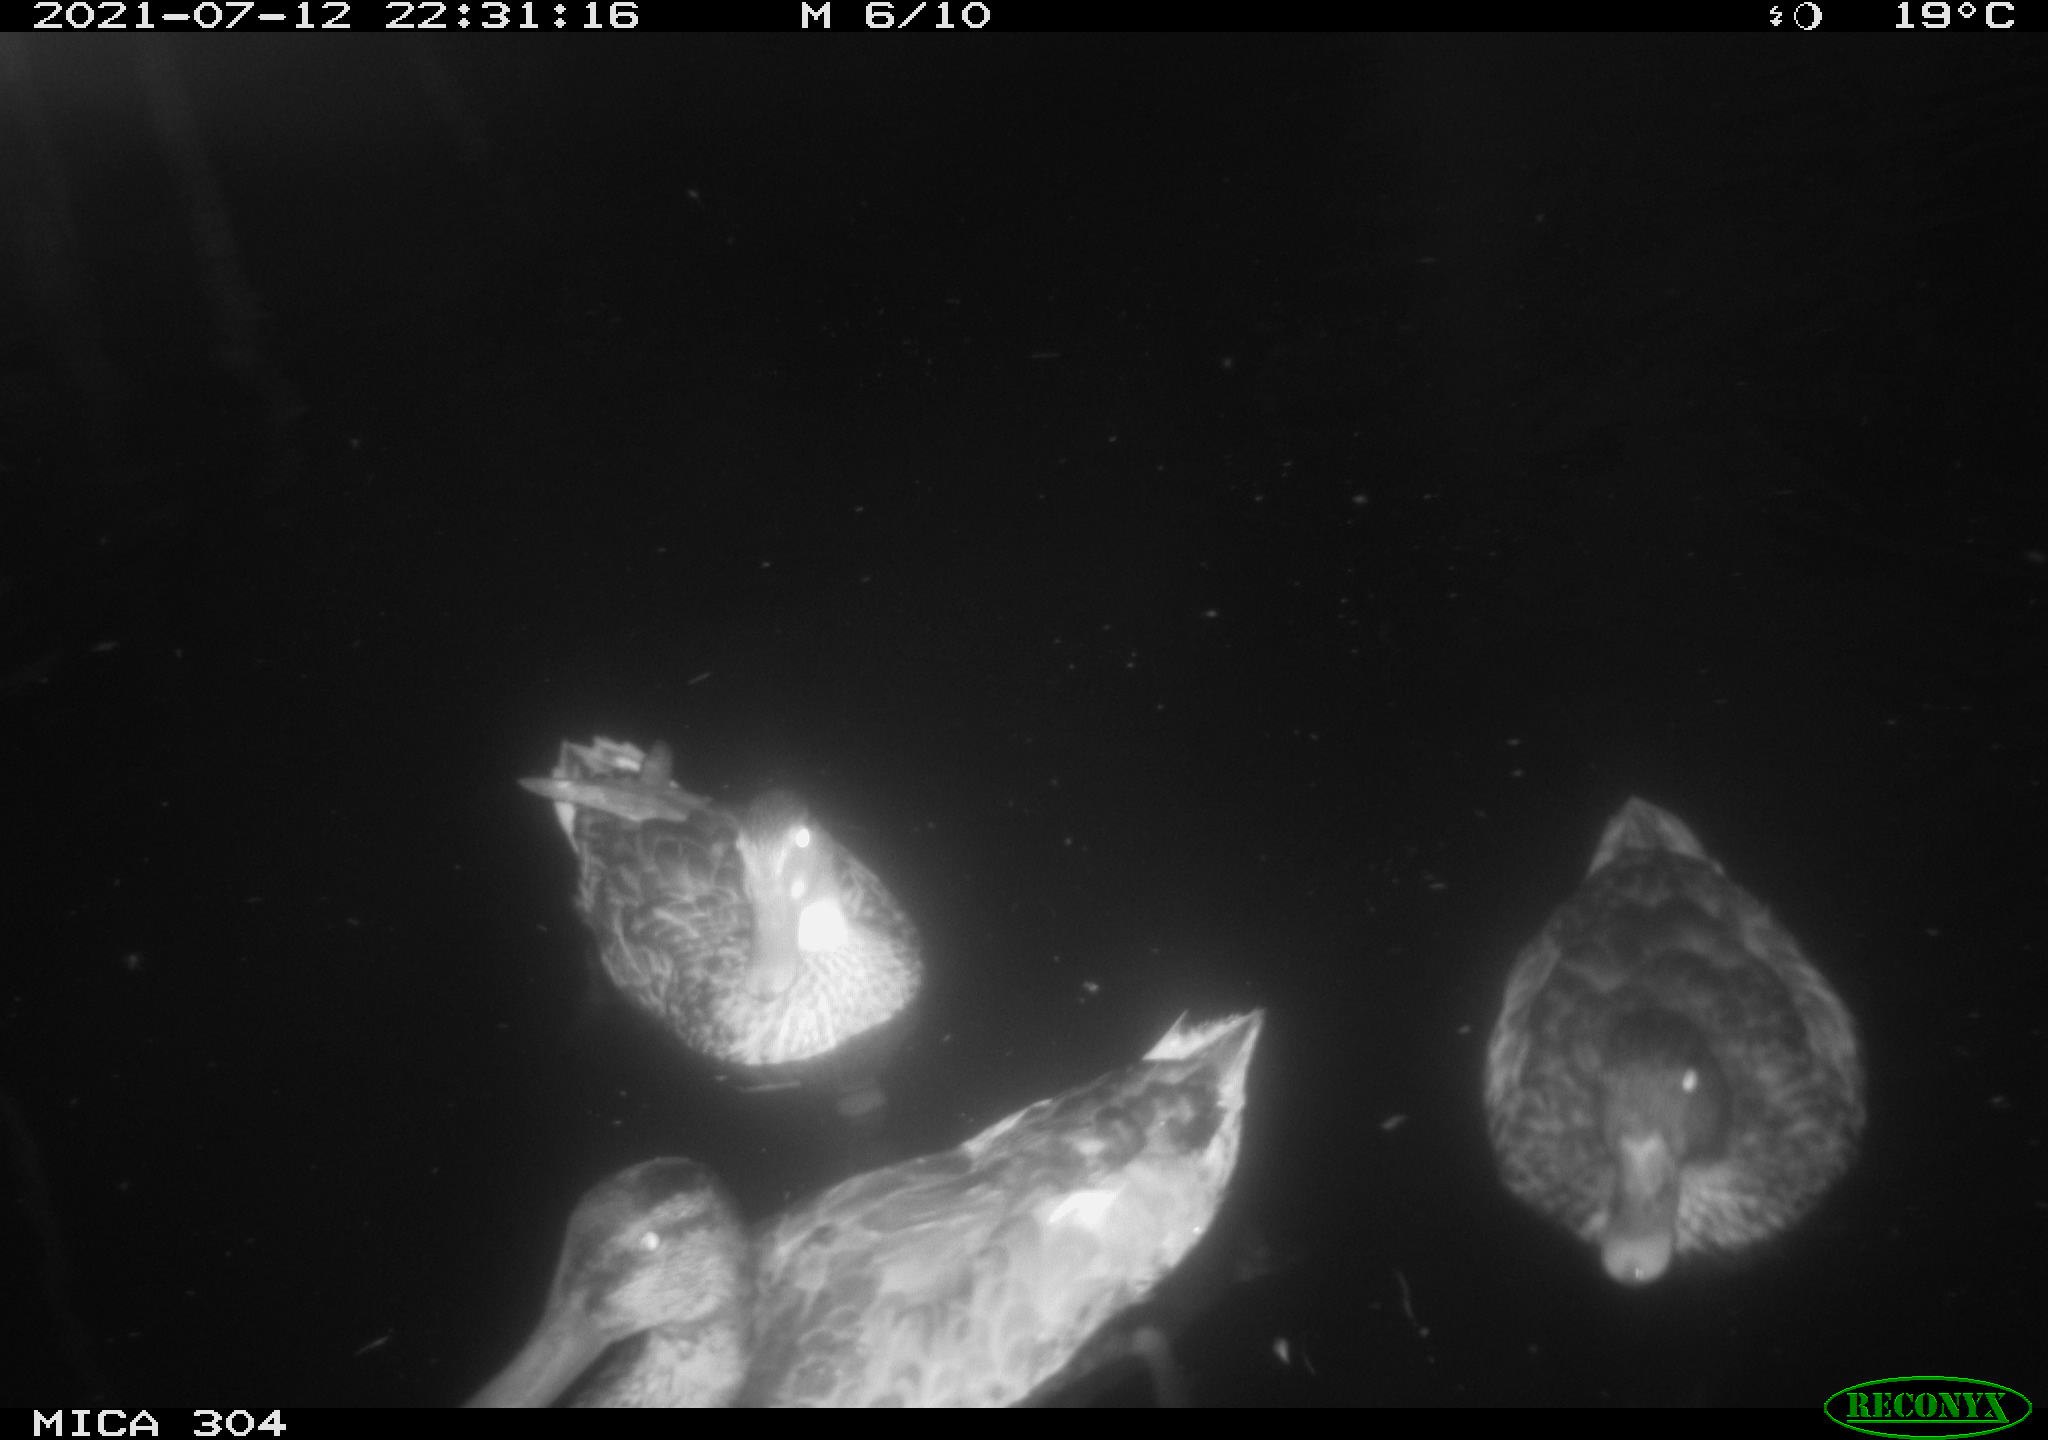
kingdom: Animalia
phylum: Chordata
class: Aves
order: Anseriformes
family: Anatidae
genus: Mareca
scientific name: Mareca strepera
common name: Gadwall
